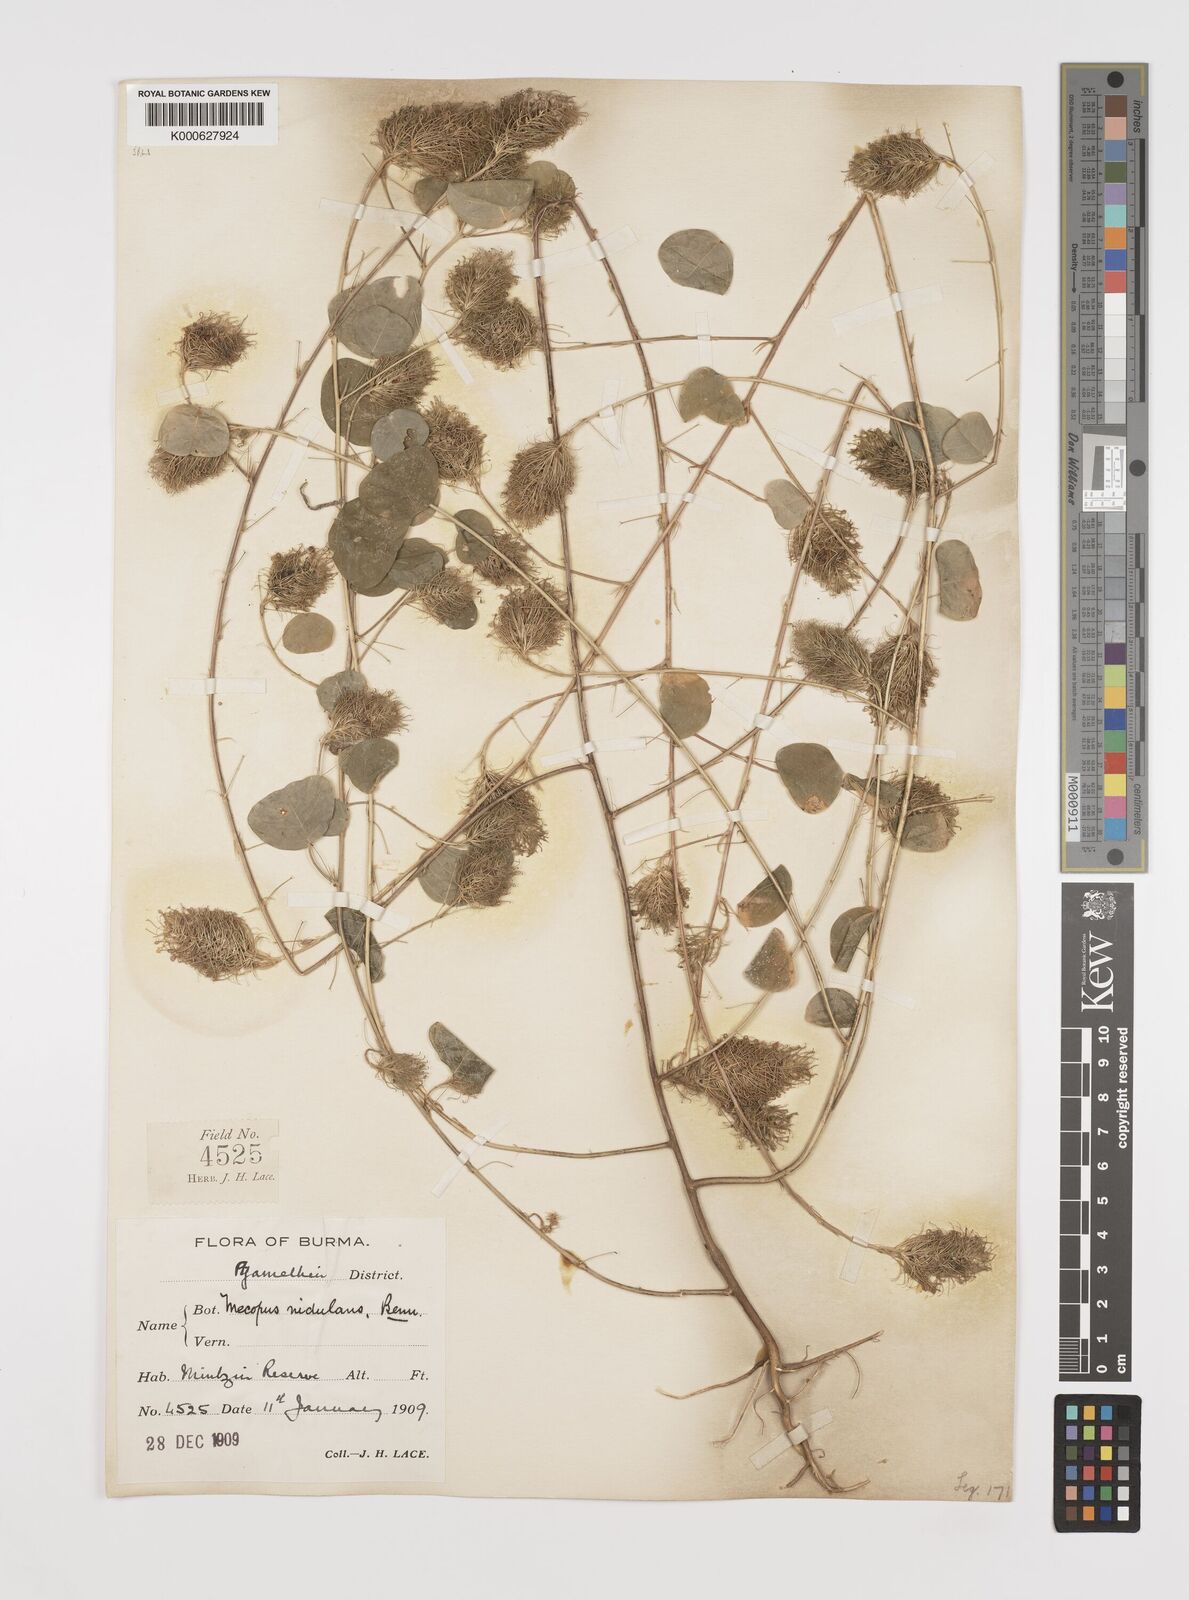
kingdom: Plantae
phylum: Tracheophyta
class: Magnoliopsida
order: Fabales
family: Fabaceae
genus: Mecopus
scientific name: Mecopus nidulans
